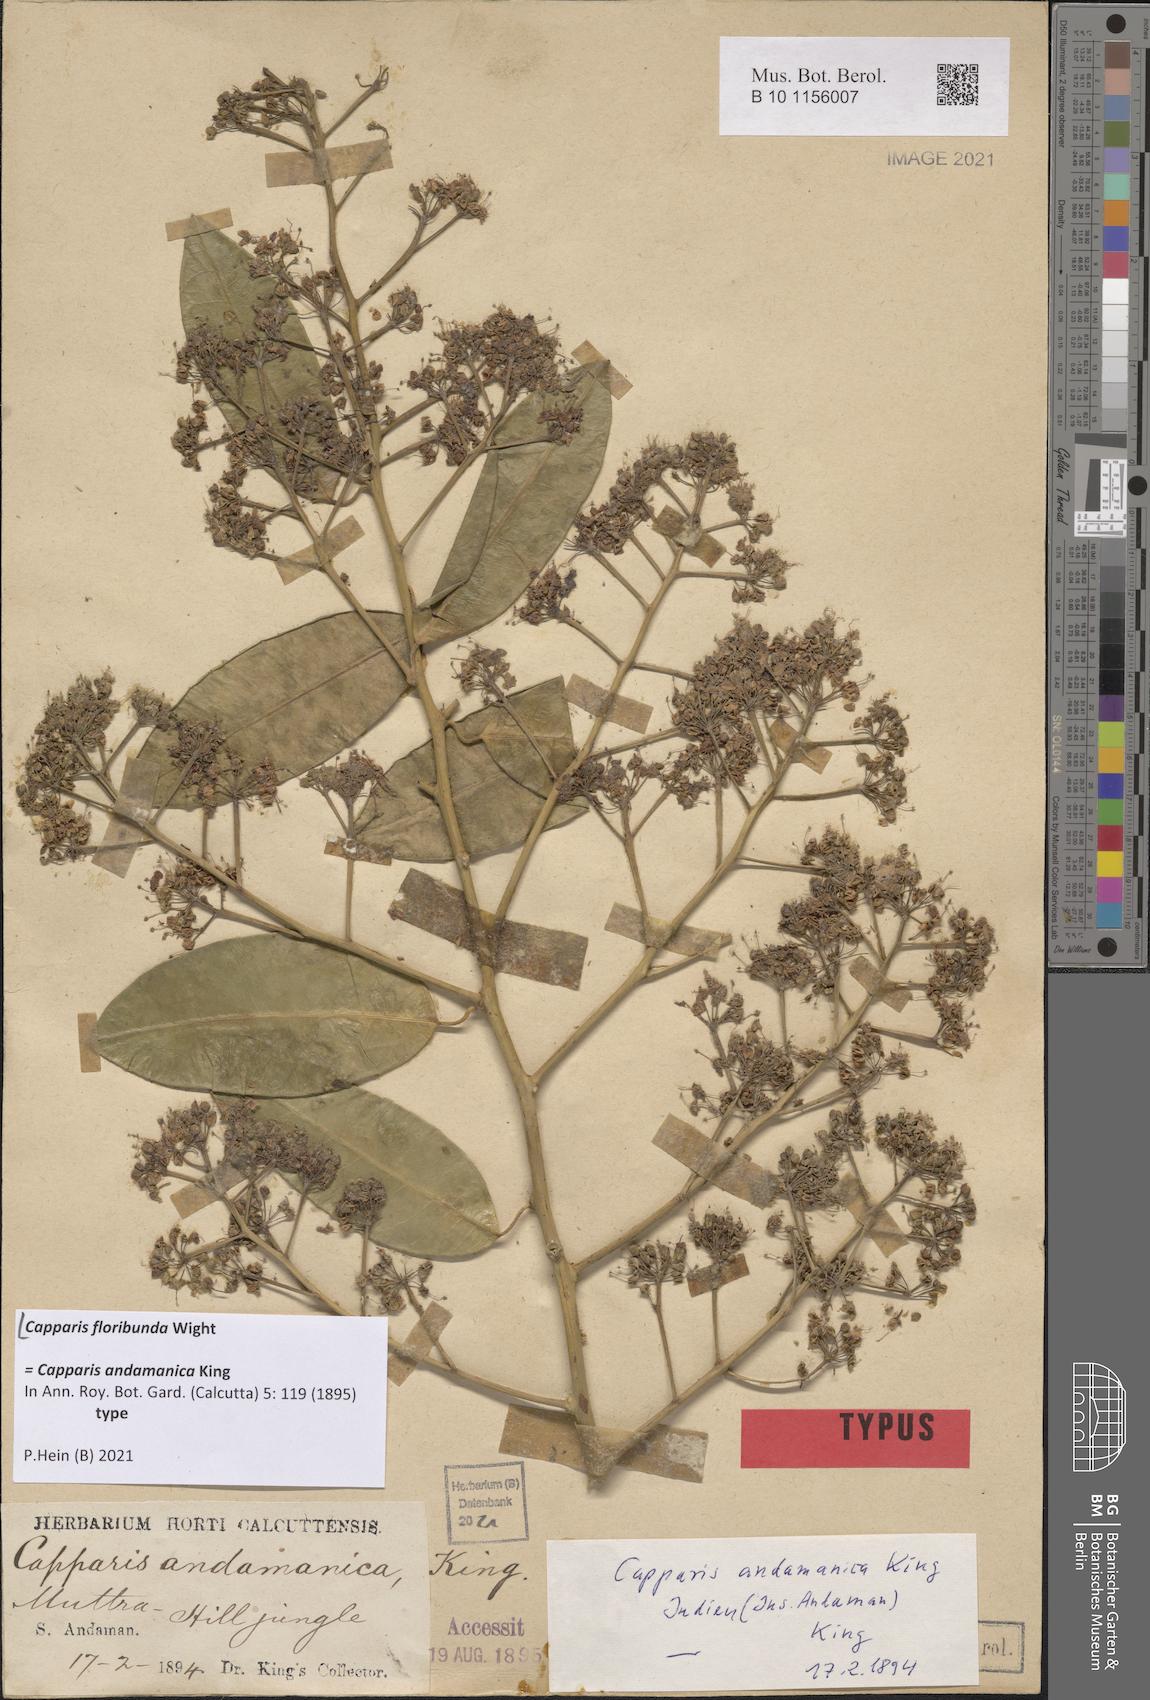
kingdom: Plantae
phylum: Tracheophyta
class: Magnoliopsida
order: Brassicales
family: Capparaceae
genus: Capparis
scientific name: Capparis floribunda
